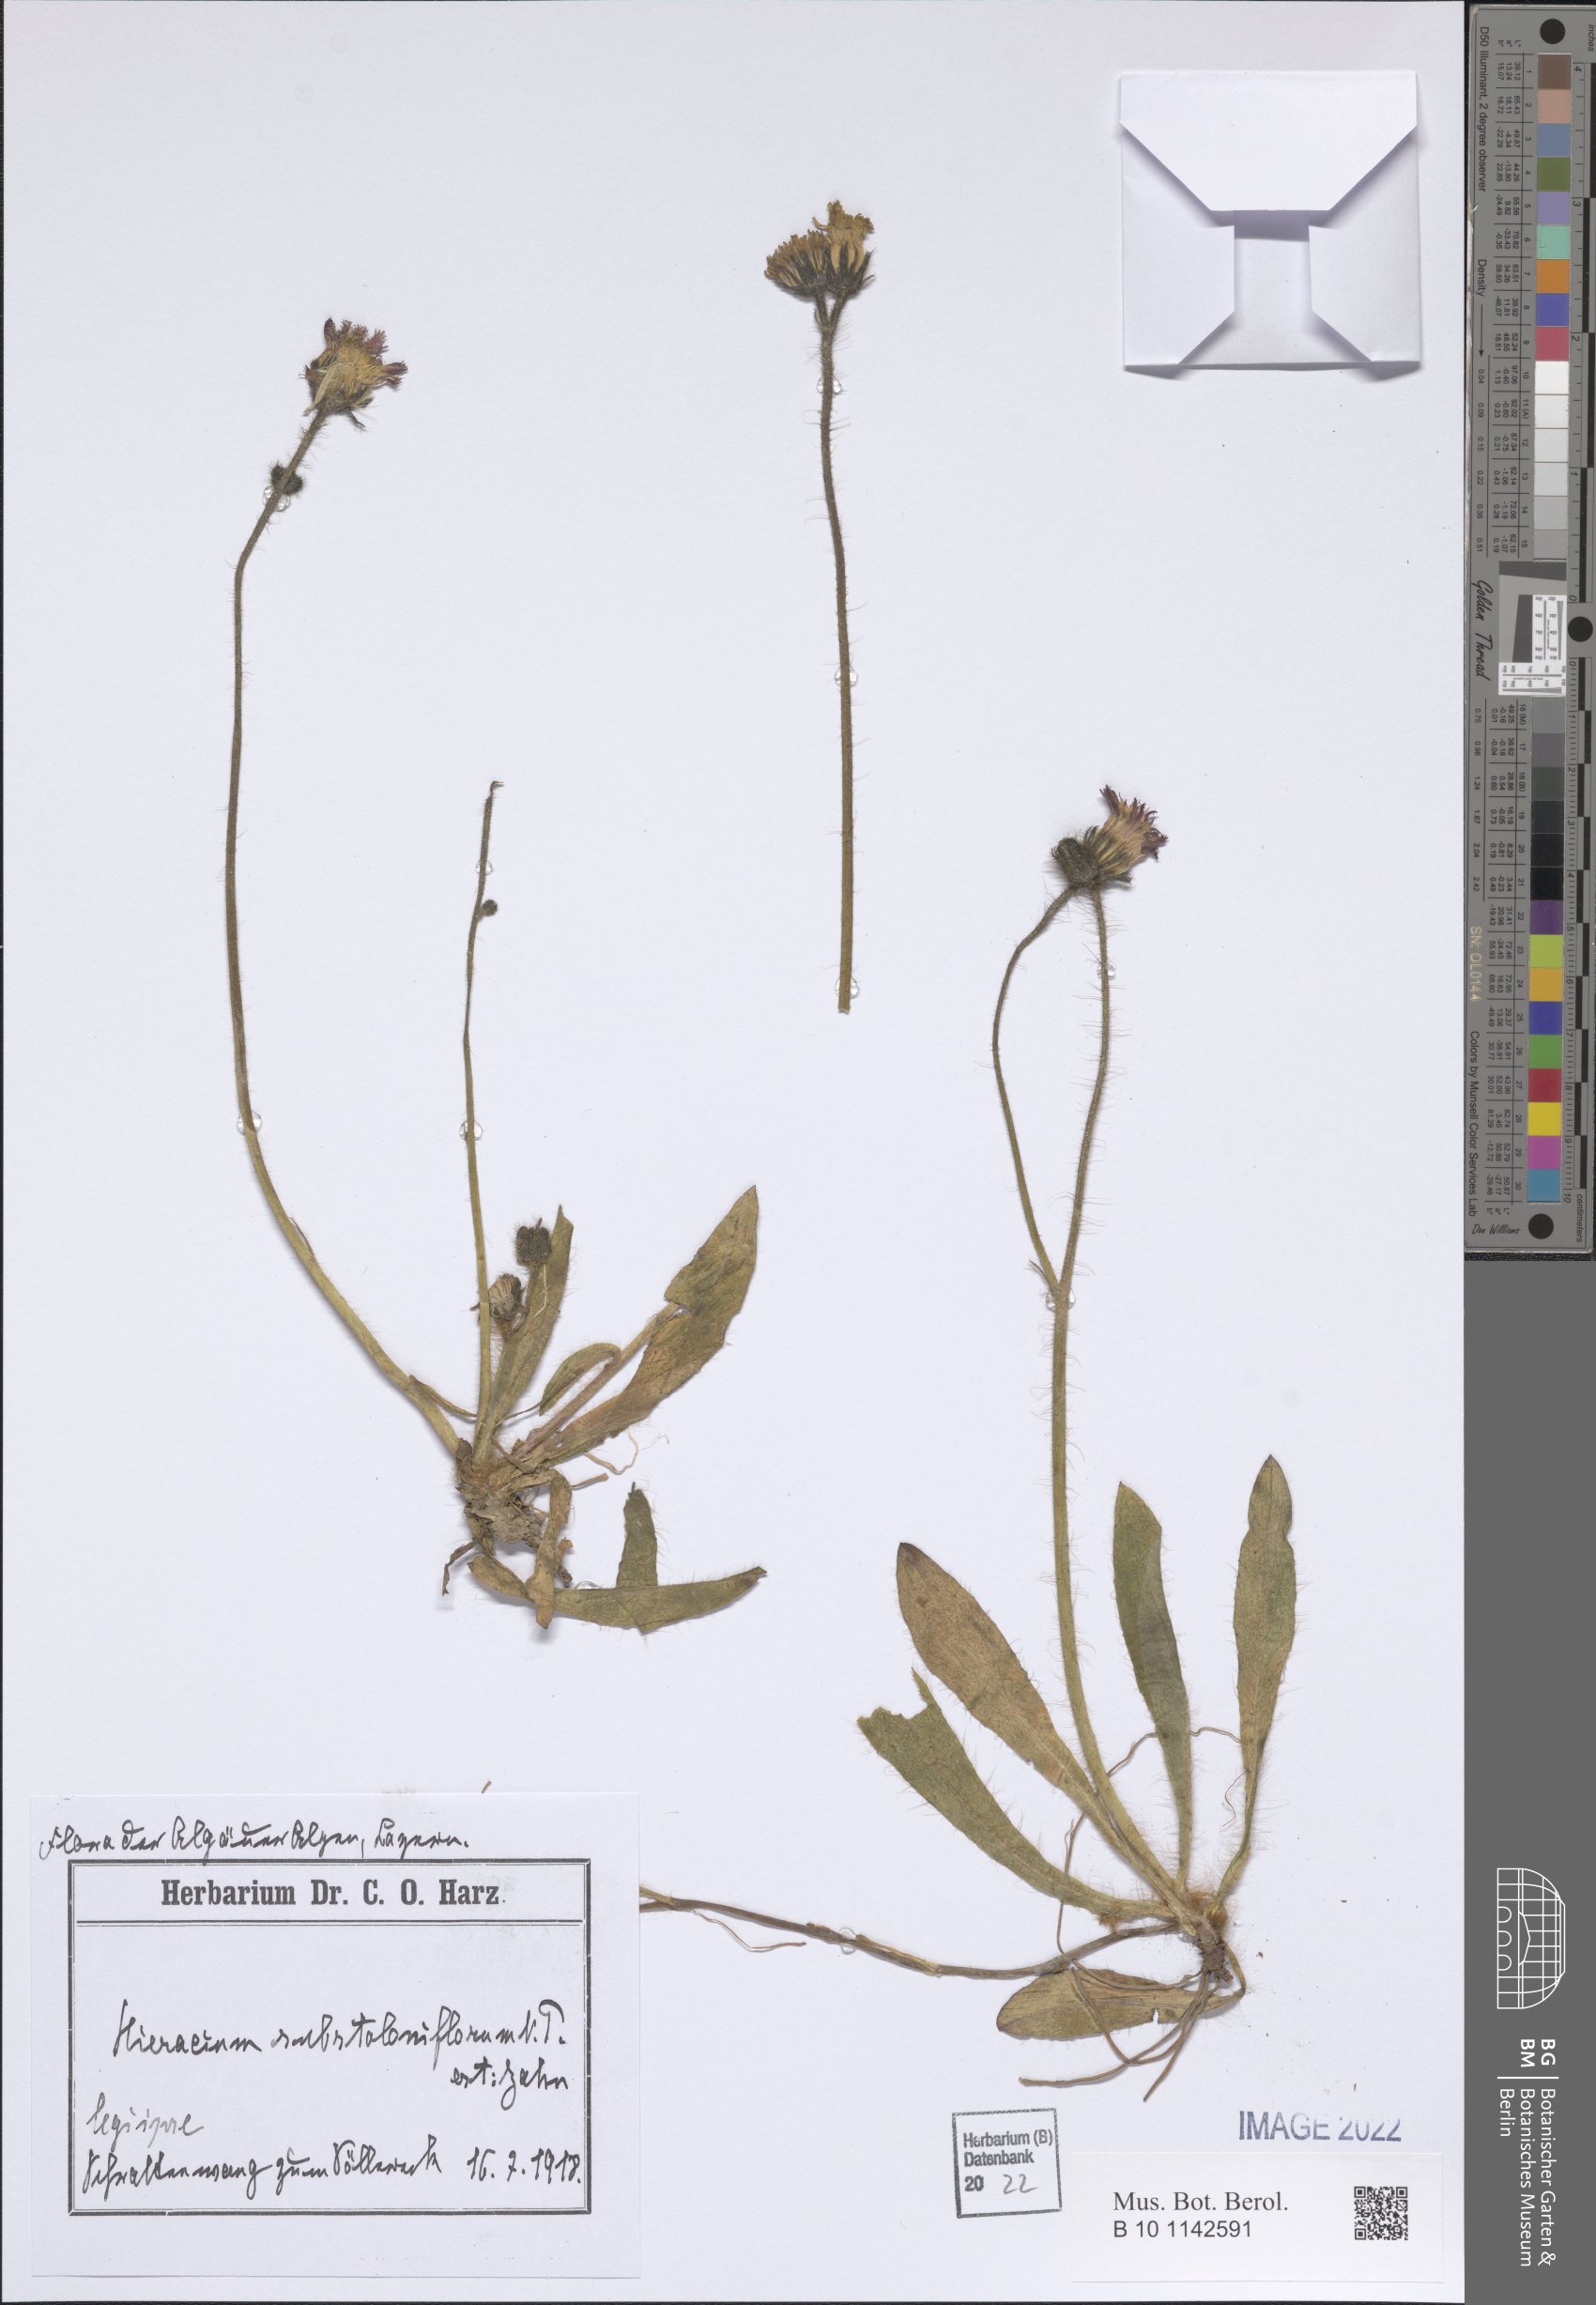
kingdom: Plantae
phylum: Tracheophyta
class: Magnoliopsida
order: Asterales
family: Asteraceae
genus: Pilosella
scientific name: Pilosella stoloniflora
